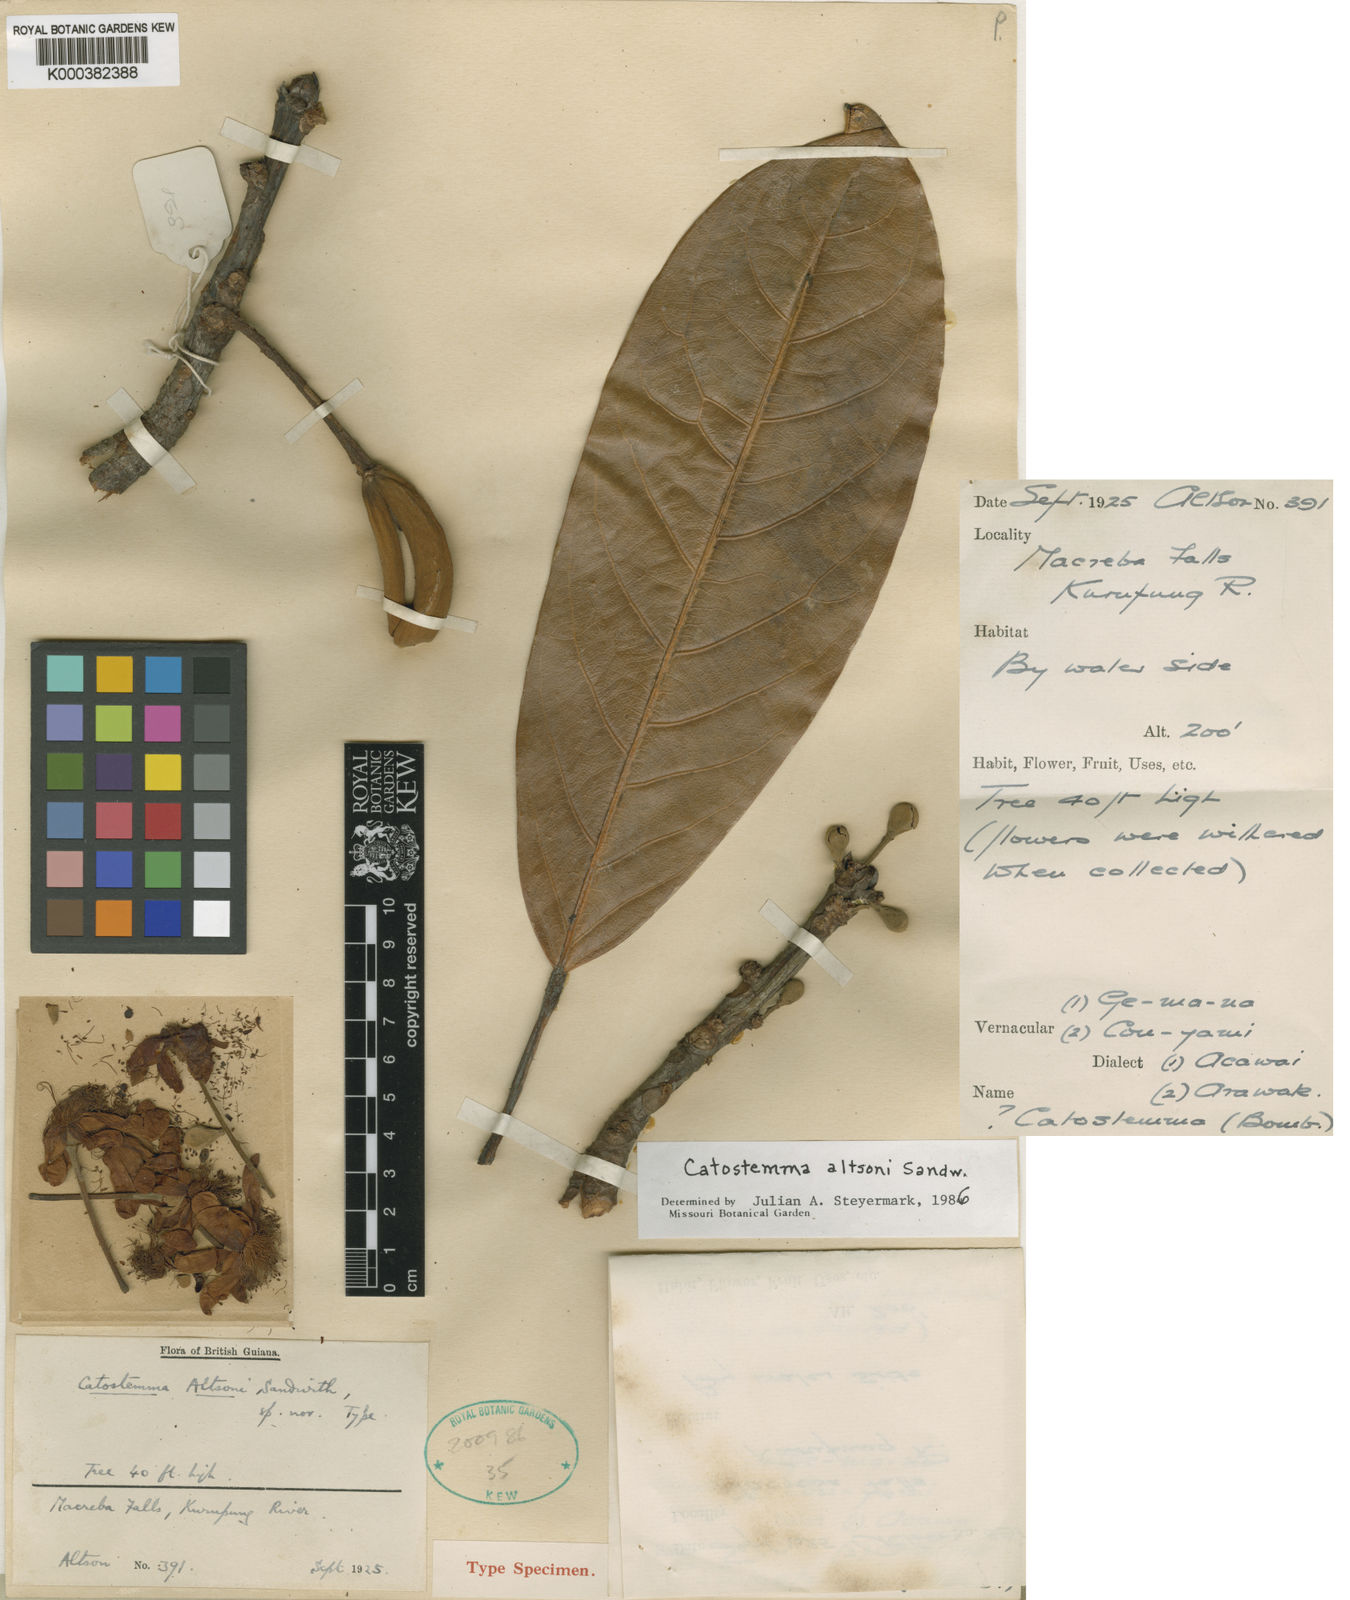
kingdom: Plantae
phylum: Tracheophyta
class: Magnoliopsida
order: Malvales
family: Malvaceae
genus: Catostemma
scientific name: Catostemma altsonii
